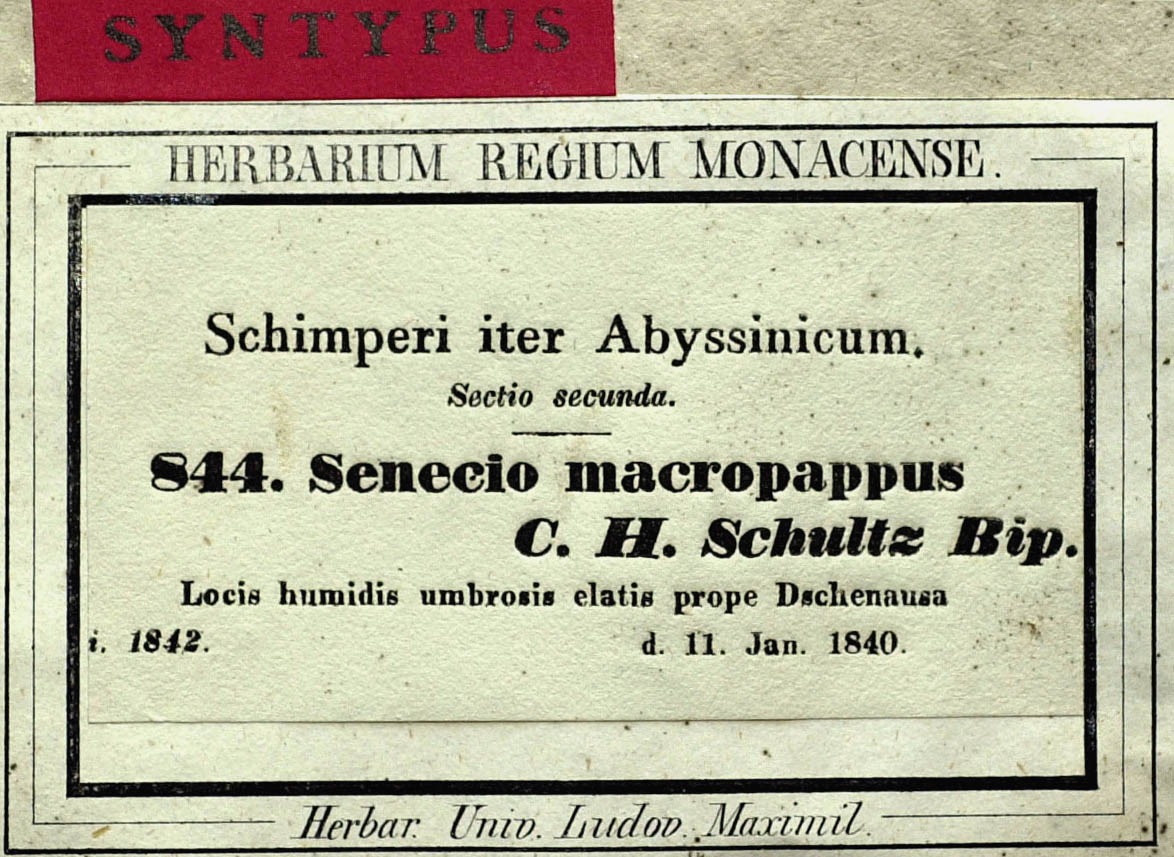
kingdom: Plantae
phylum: Tracheophyta
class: Magnoliopsida
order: Asterales
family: Asteraceae
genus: Crassocephalum
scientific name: Crassocephalum macropappus
